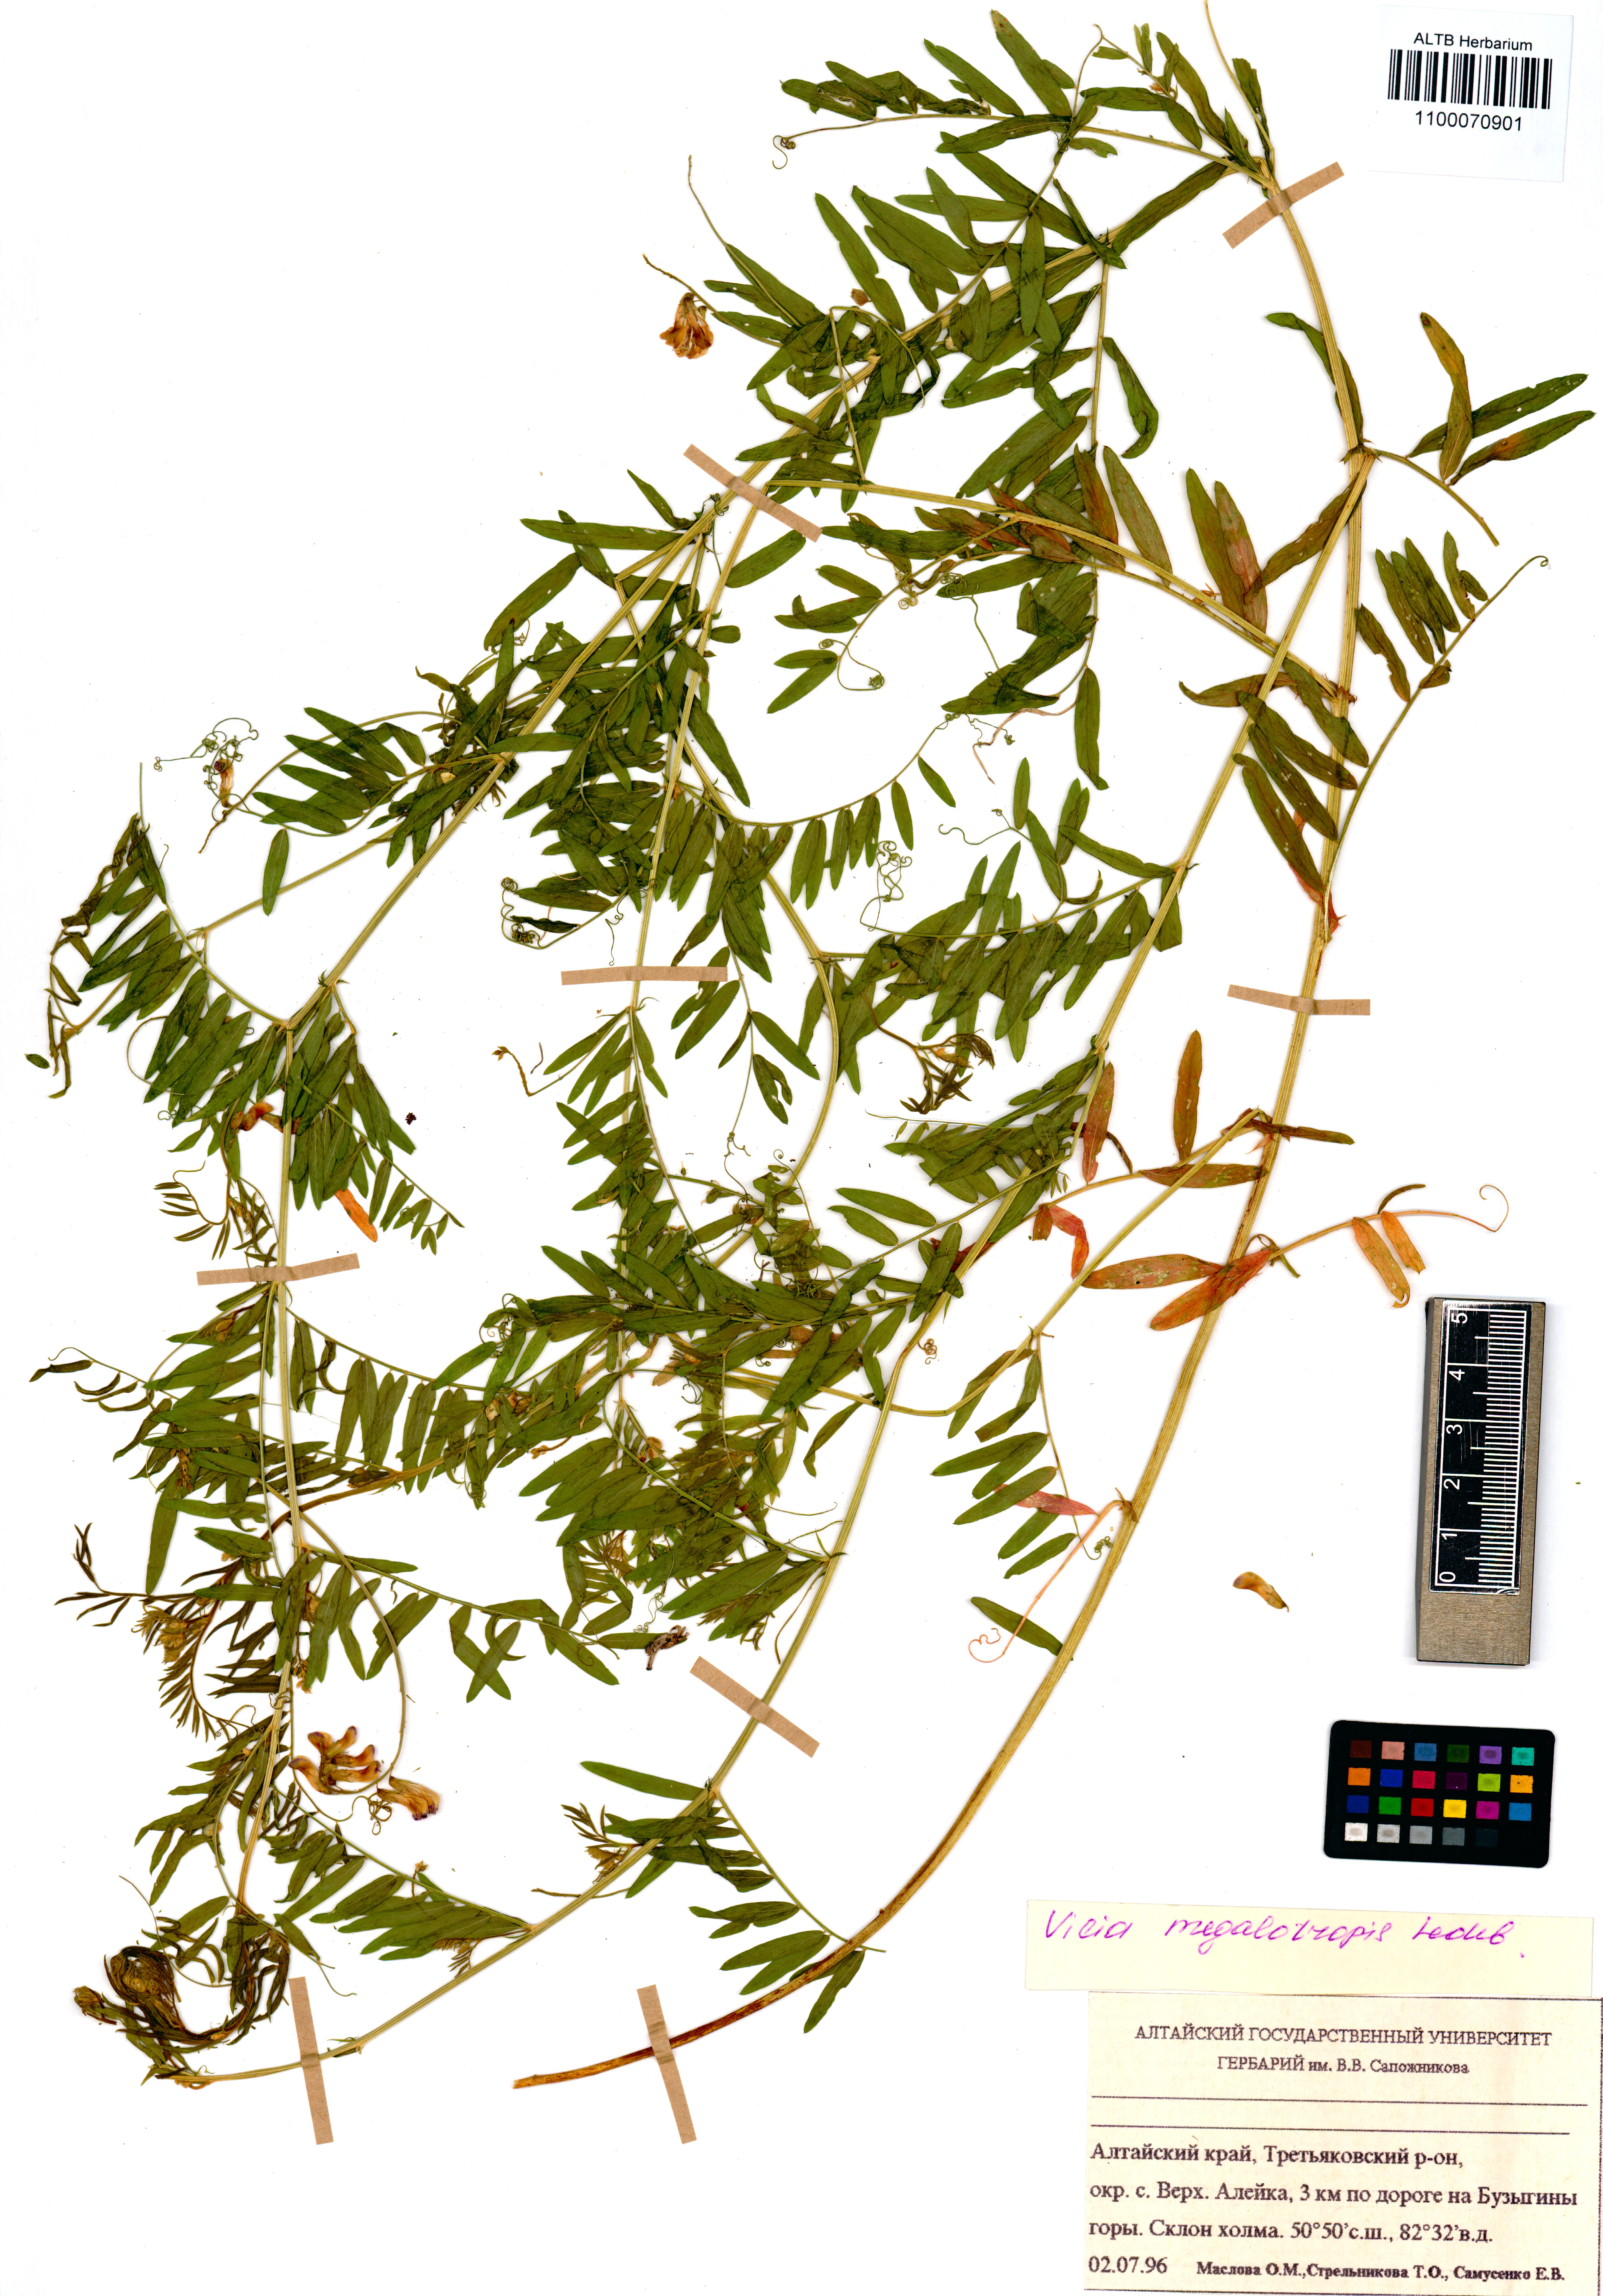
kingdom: Plantae
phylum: Tracheophyta
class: Magnoliopsida
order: Fabales
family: Fabaceae
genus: Vicia
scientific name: Vicia megalotropis
